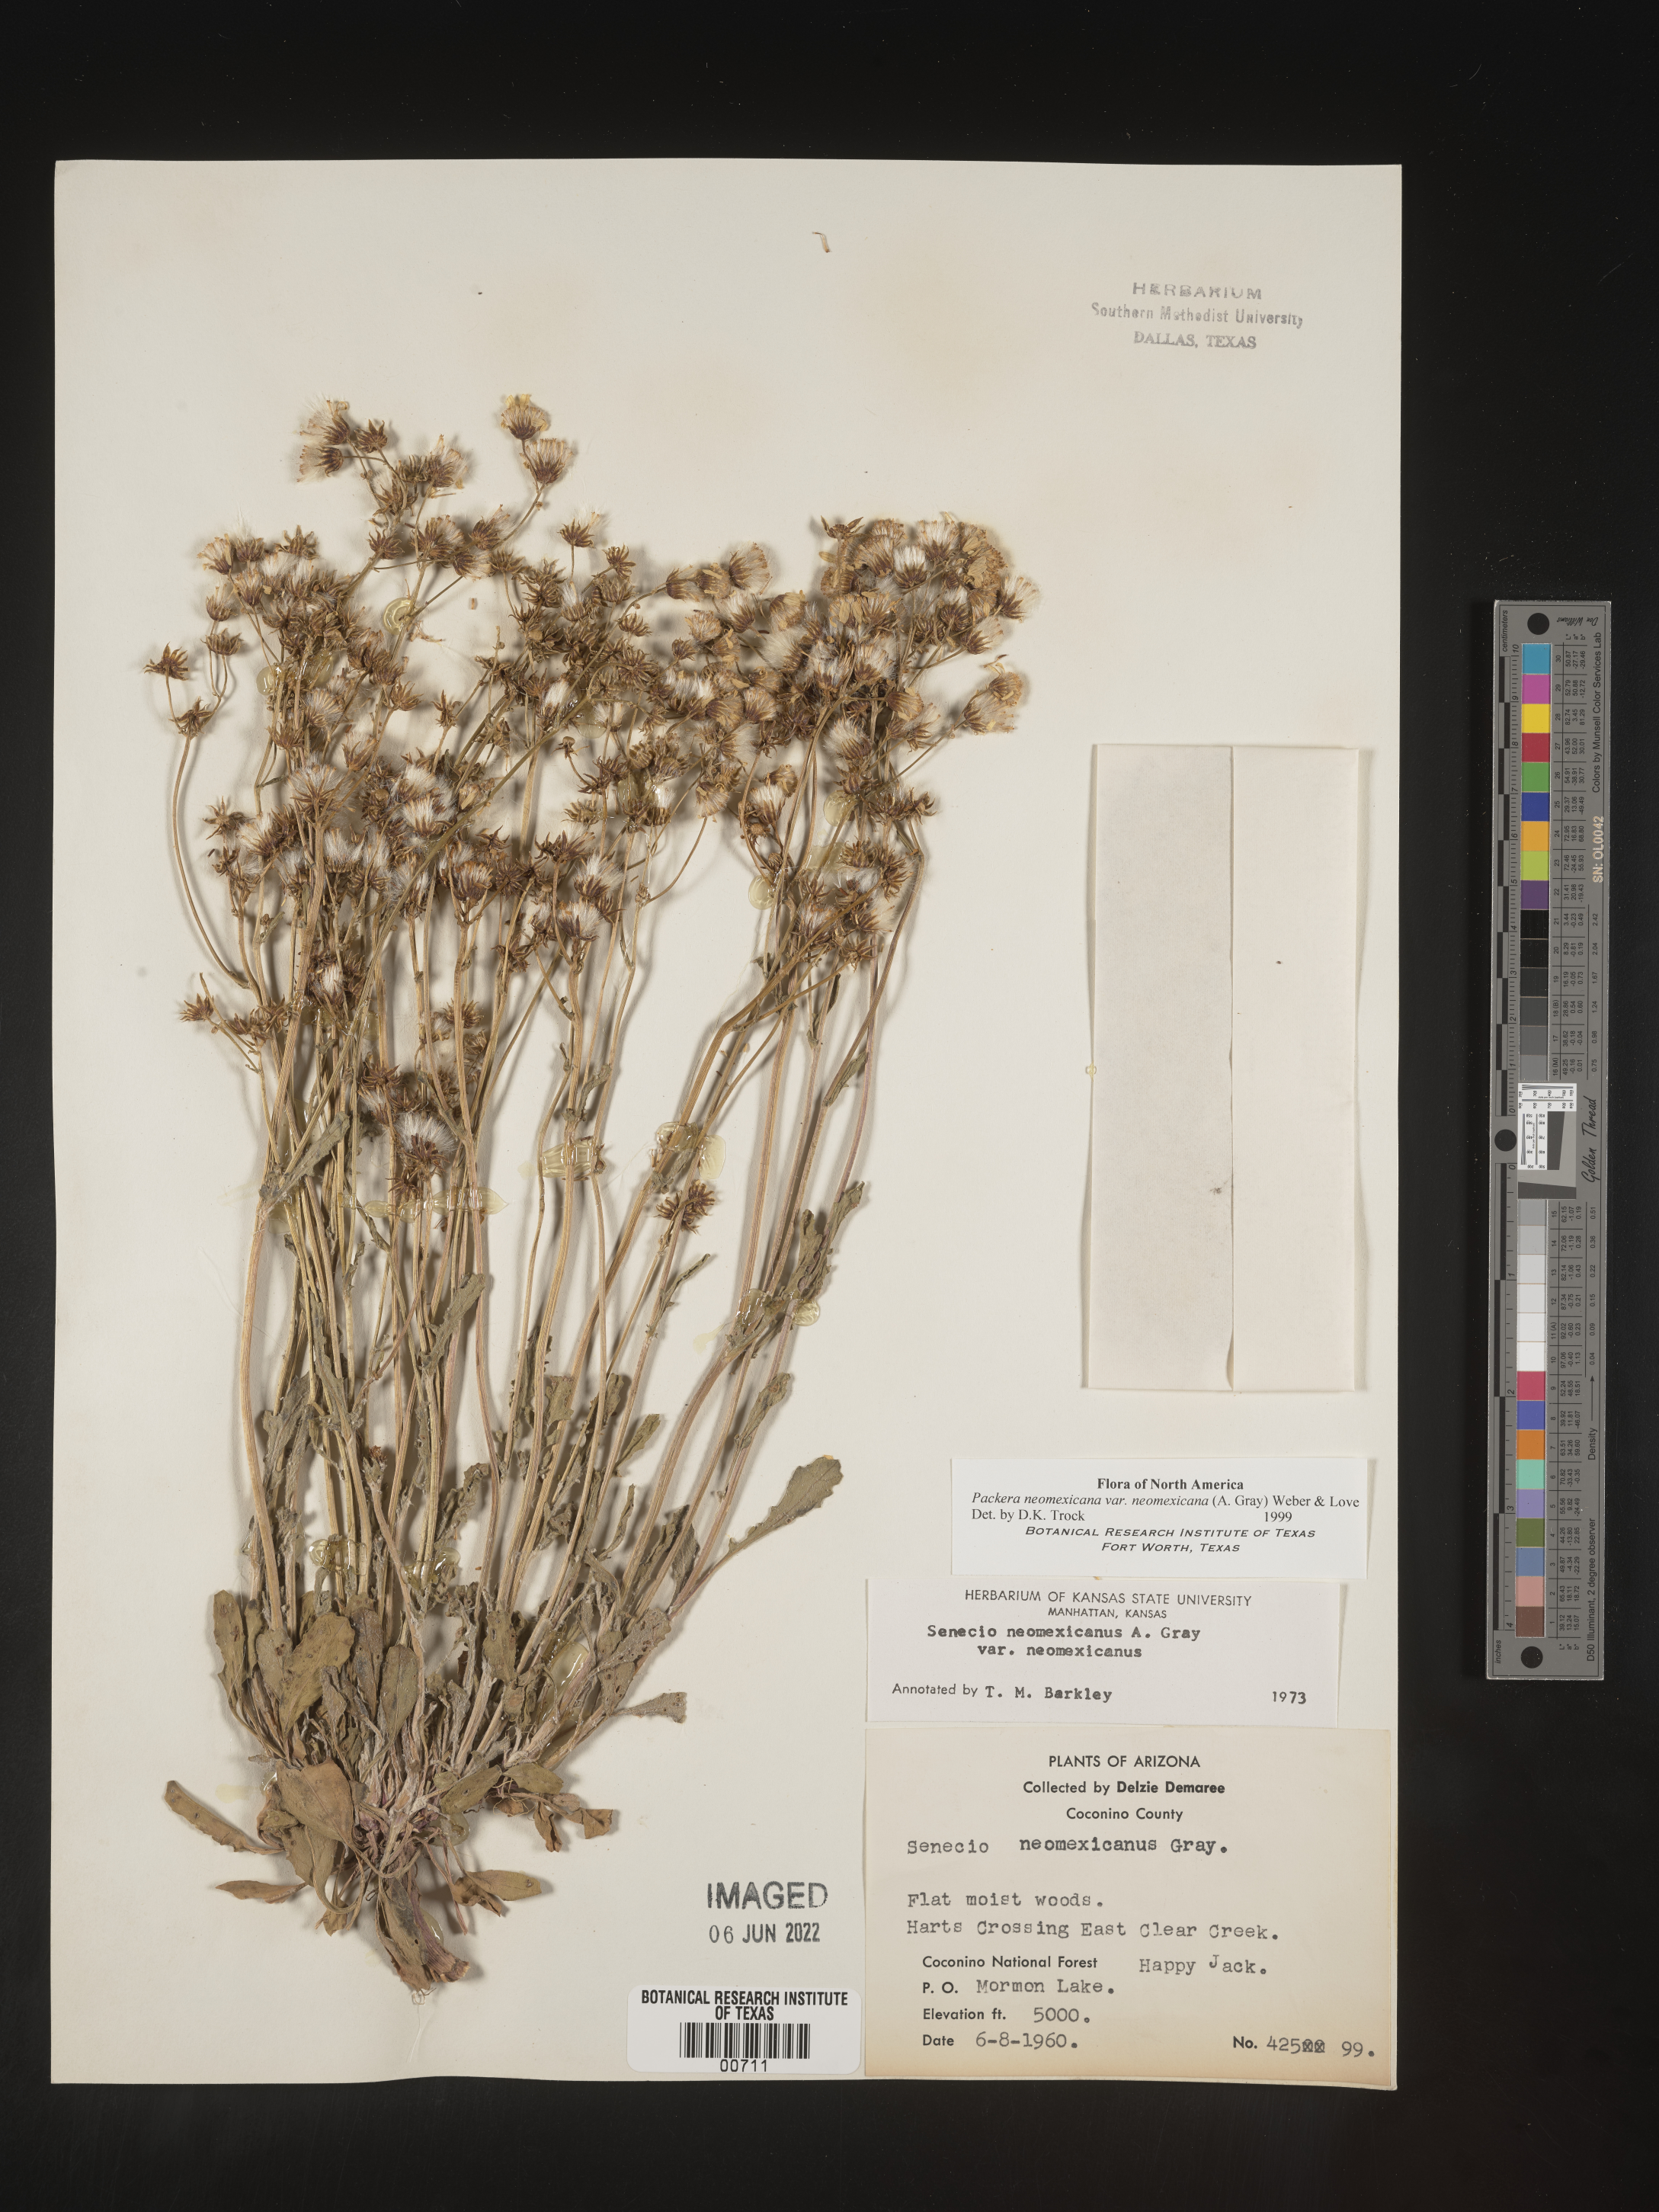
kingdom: Plantae
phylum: Tracheophyta
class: Magnoliopsida
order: Asterales
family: Asteraceae
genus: Packera
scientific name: Packera neomexicana
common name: New mexico butterweed
